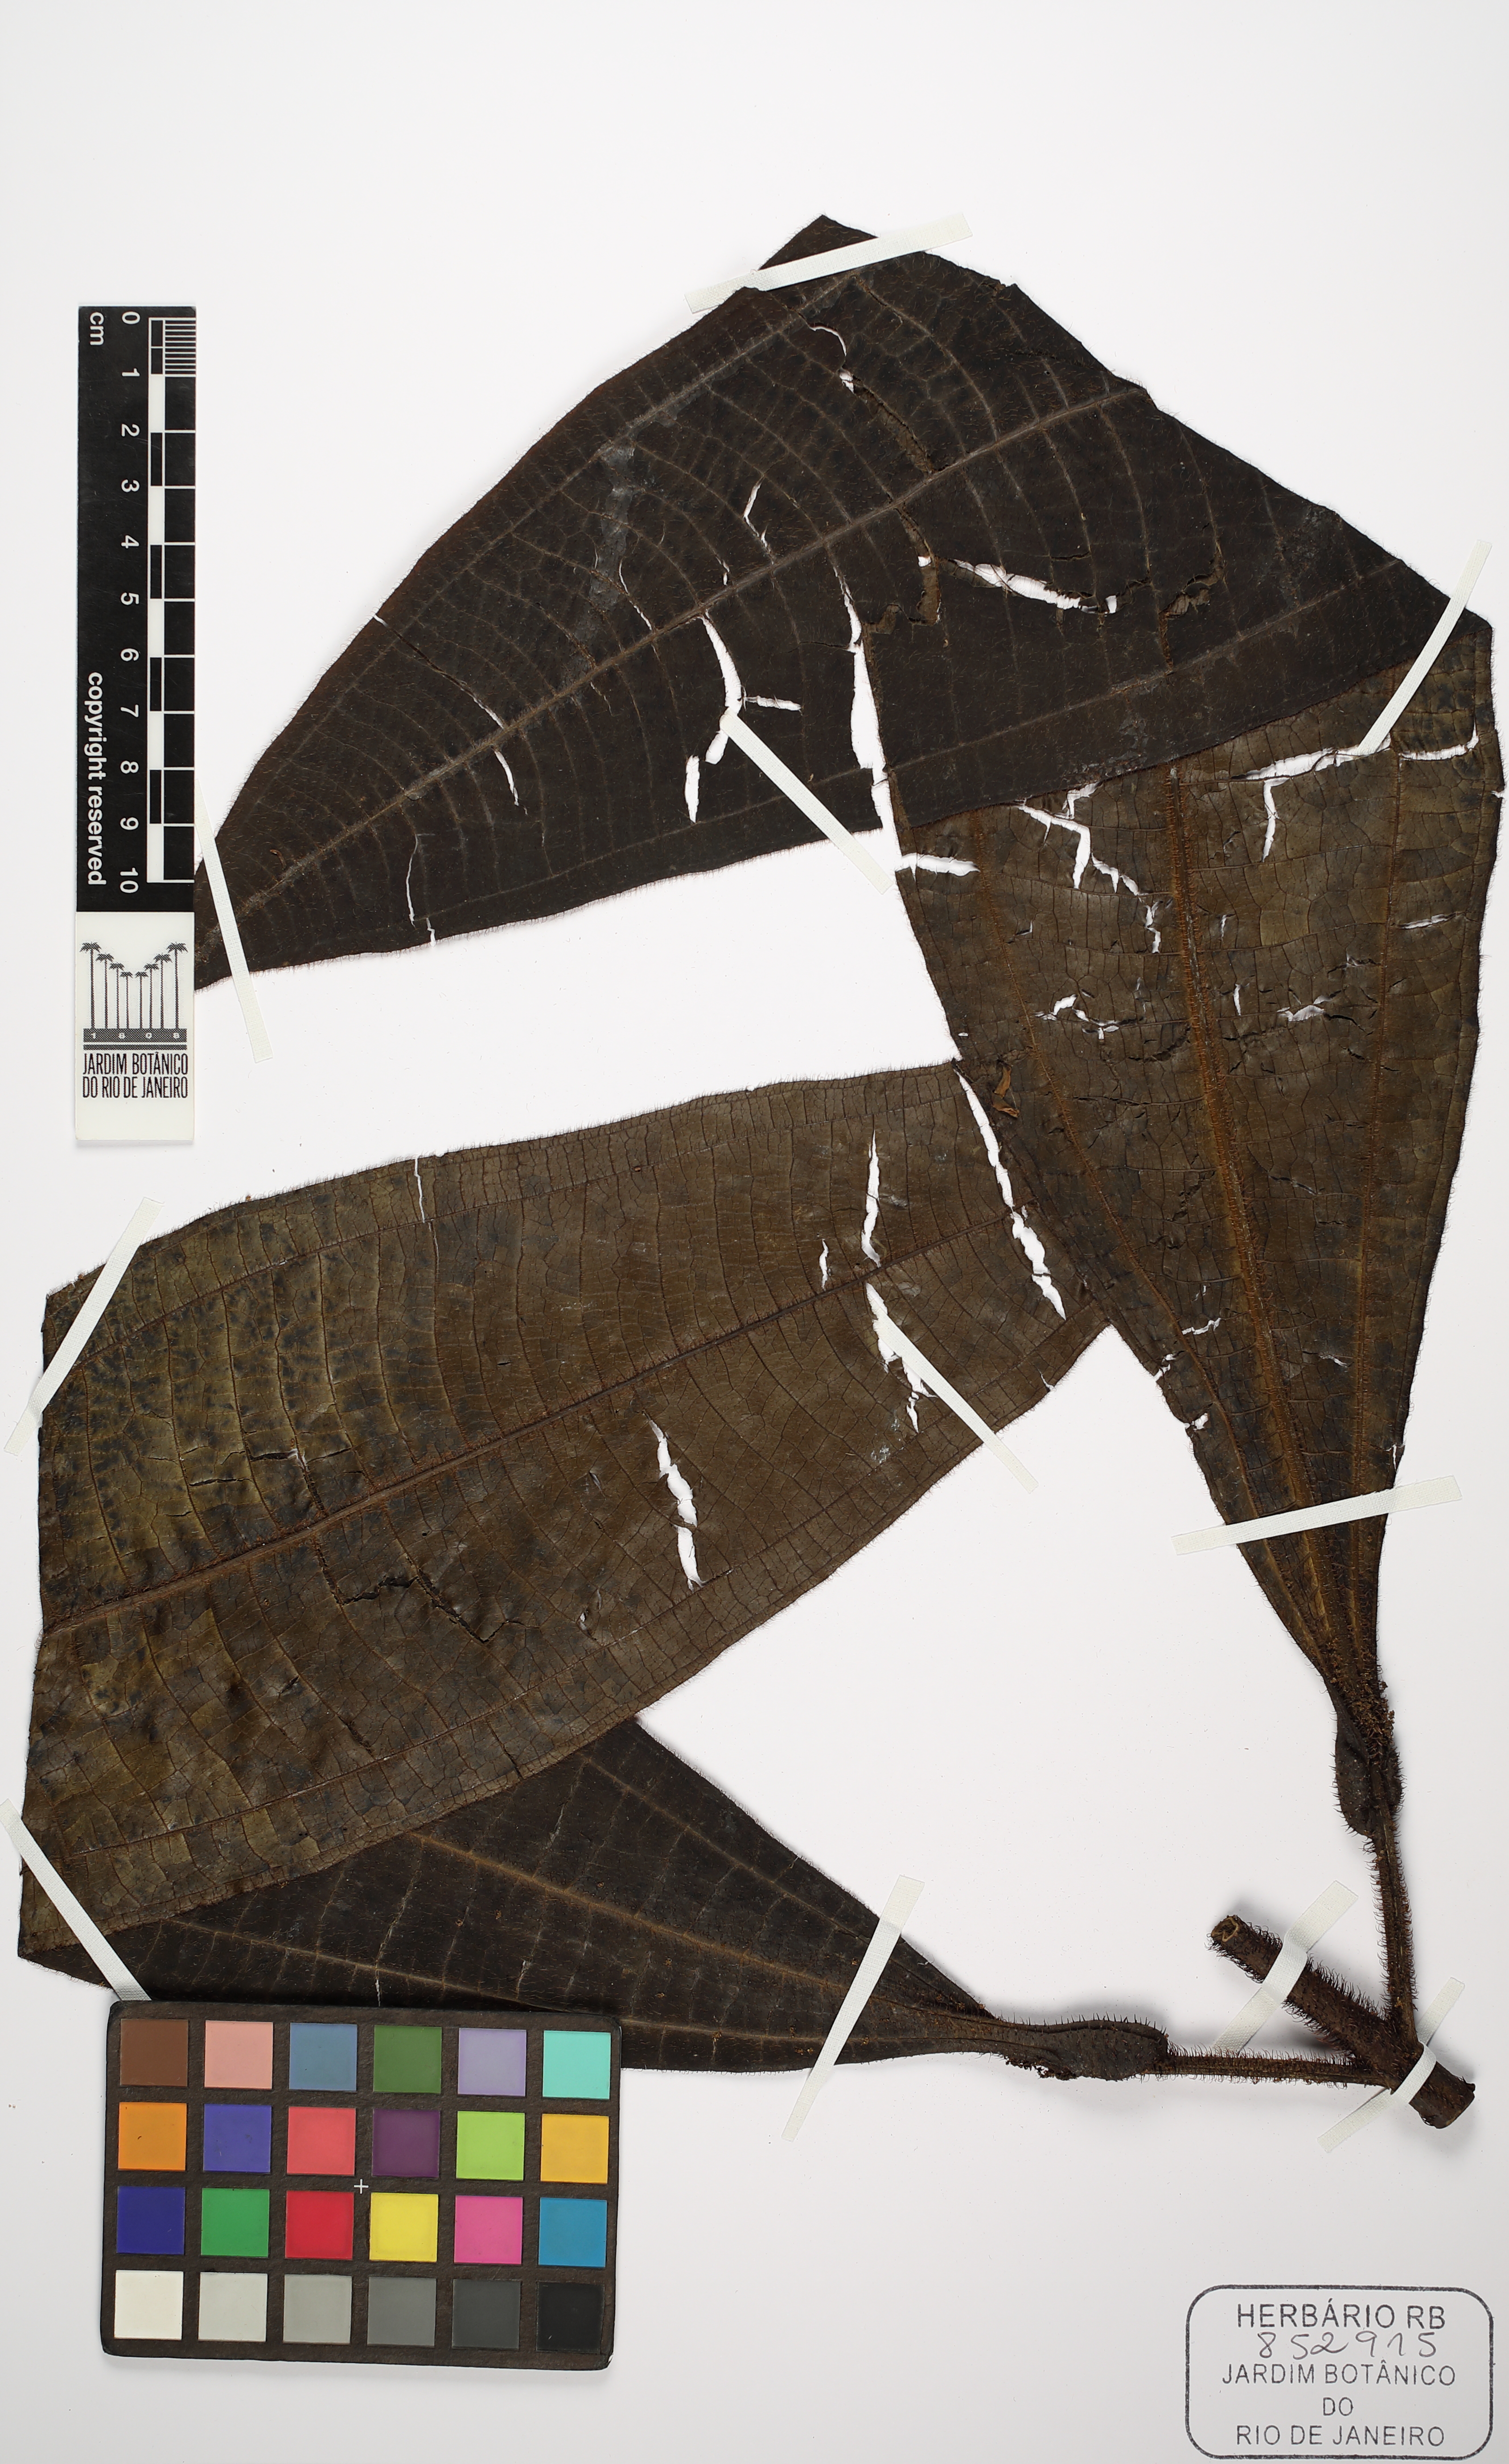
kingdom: Plantae
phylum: Tracheophyta
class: Magnoliopsida
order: Myrtales
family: Melastomataceae
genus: Miconia
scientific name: Miconia leticiana
